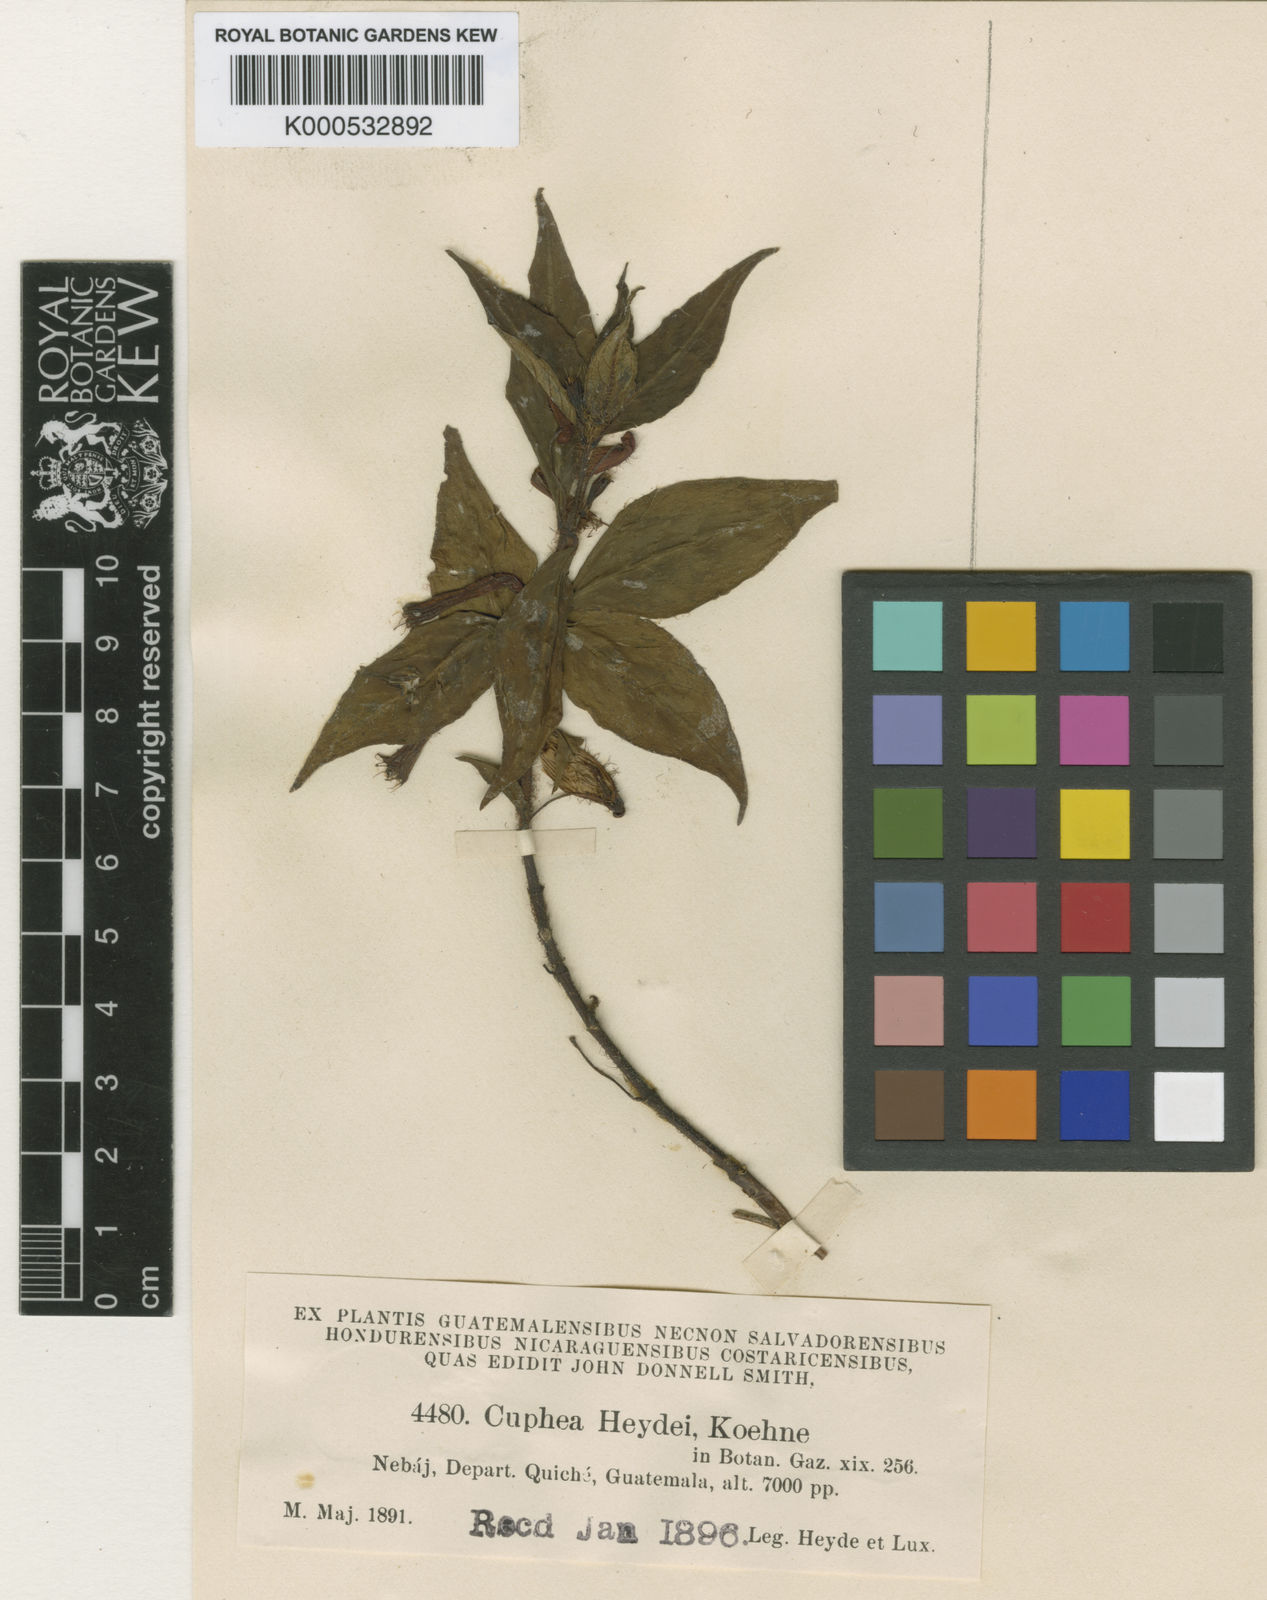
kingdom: Plantae
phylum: Tracheophyta
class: Magnoliopsida
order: Myrtales
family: Lythraceae
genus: Cuphea
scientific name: Cuphea heydei
